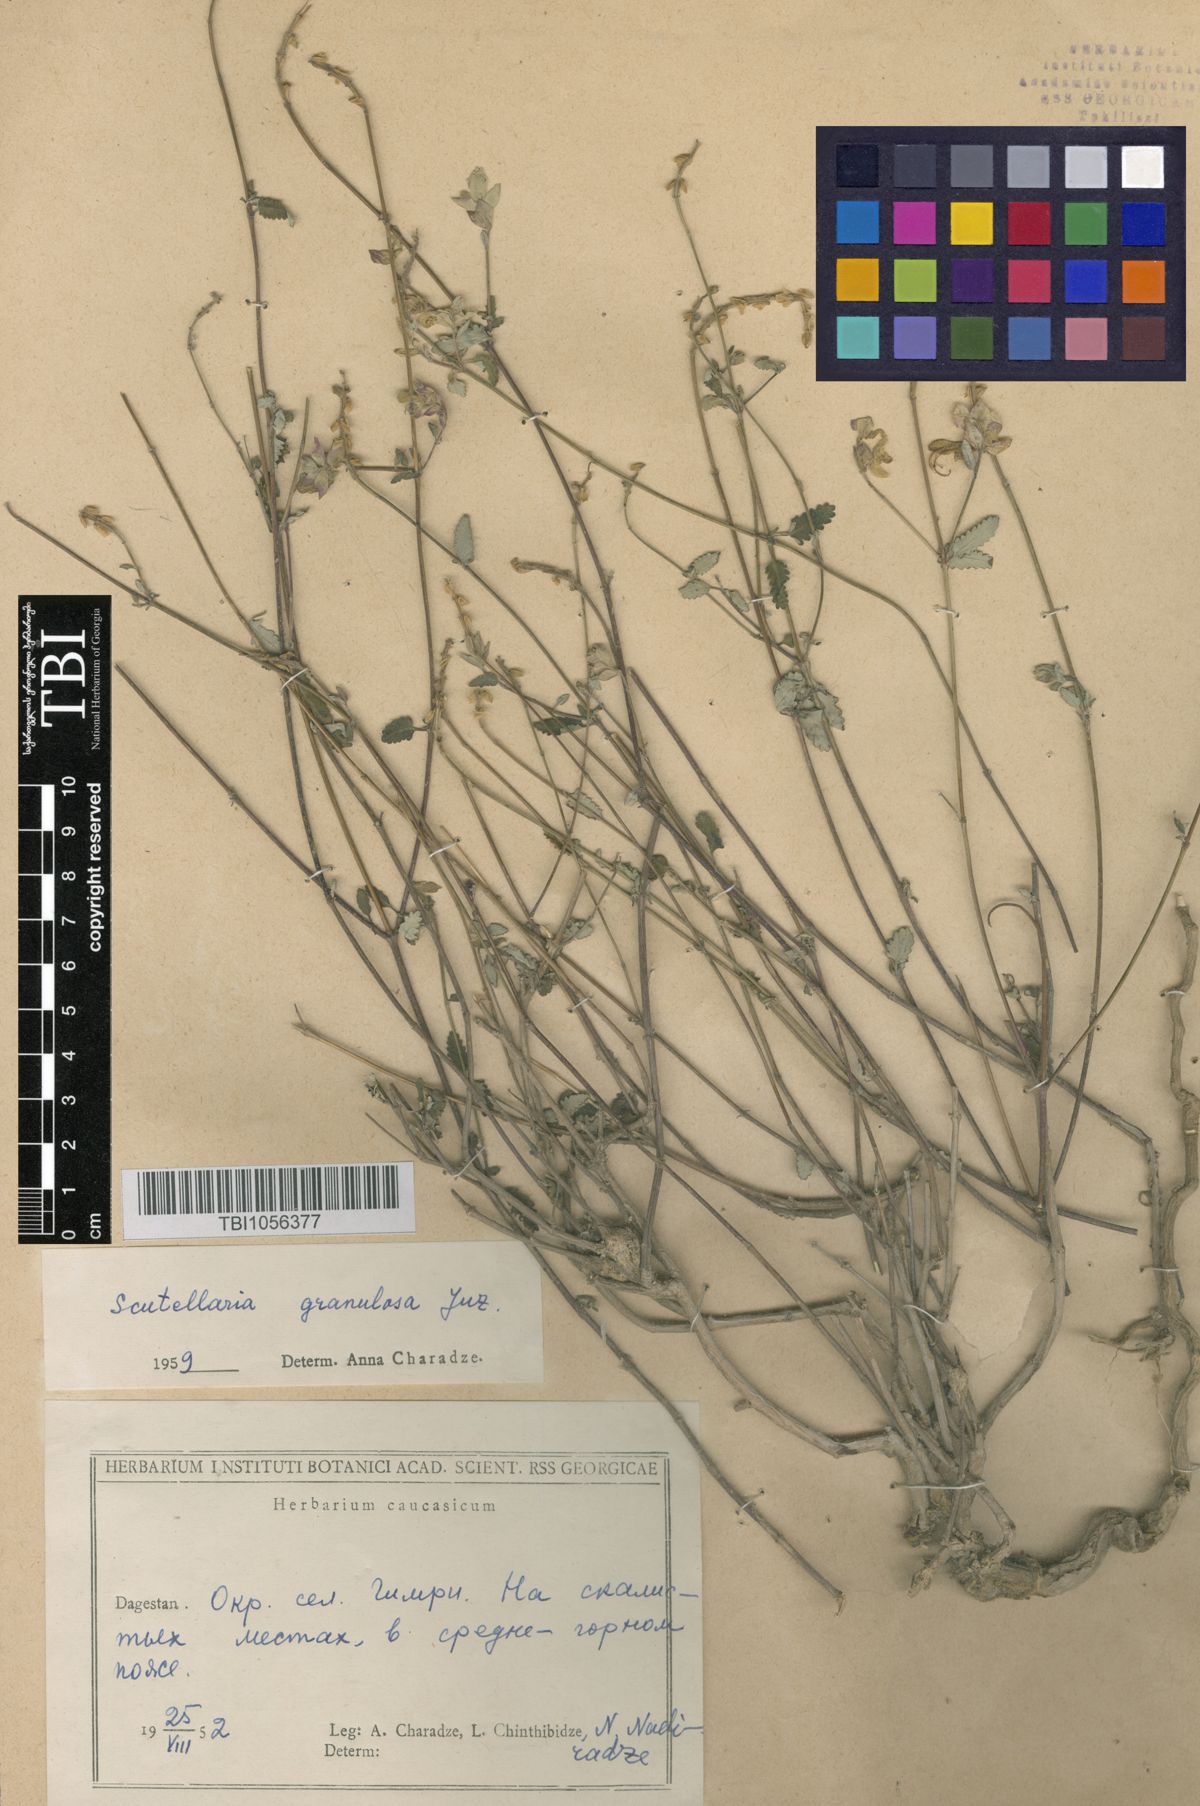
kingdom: Plantae
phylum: Tracheophyta
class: Magnoliopsida
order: Lamiales
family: Lamiaceae
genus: Scutellaria
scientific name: Scutellaria granulosa
